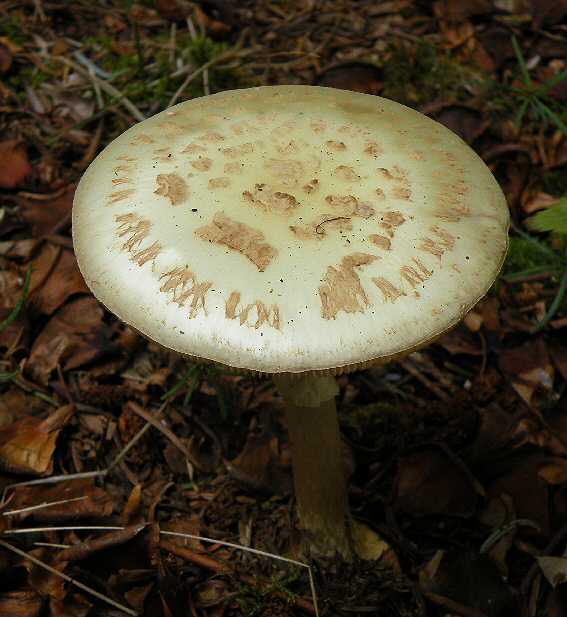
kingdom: Fungi
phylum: Basidiomycota
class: Agaricomycetes
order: Agaricales
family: Amanitaceae
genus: Amanita
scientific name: Amanita citrina
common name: kugleknoldet fluesvamp
